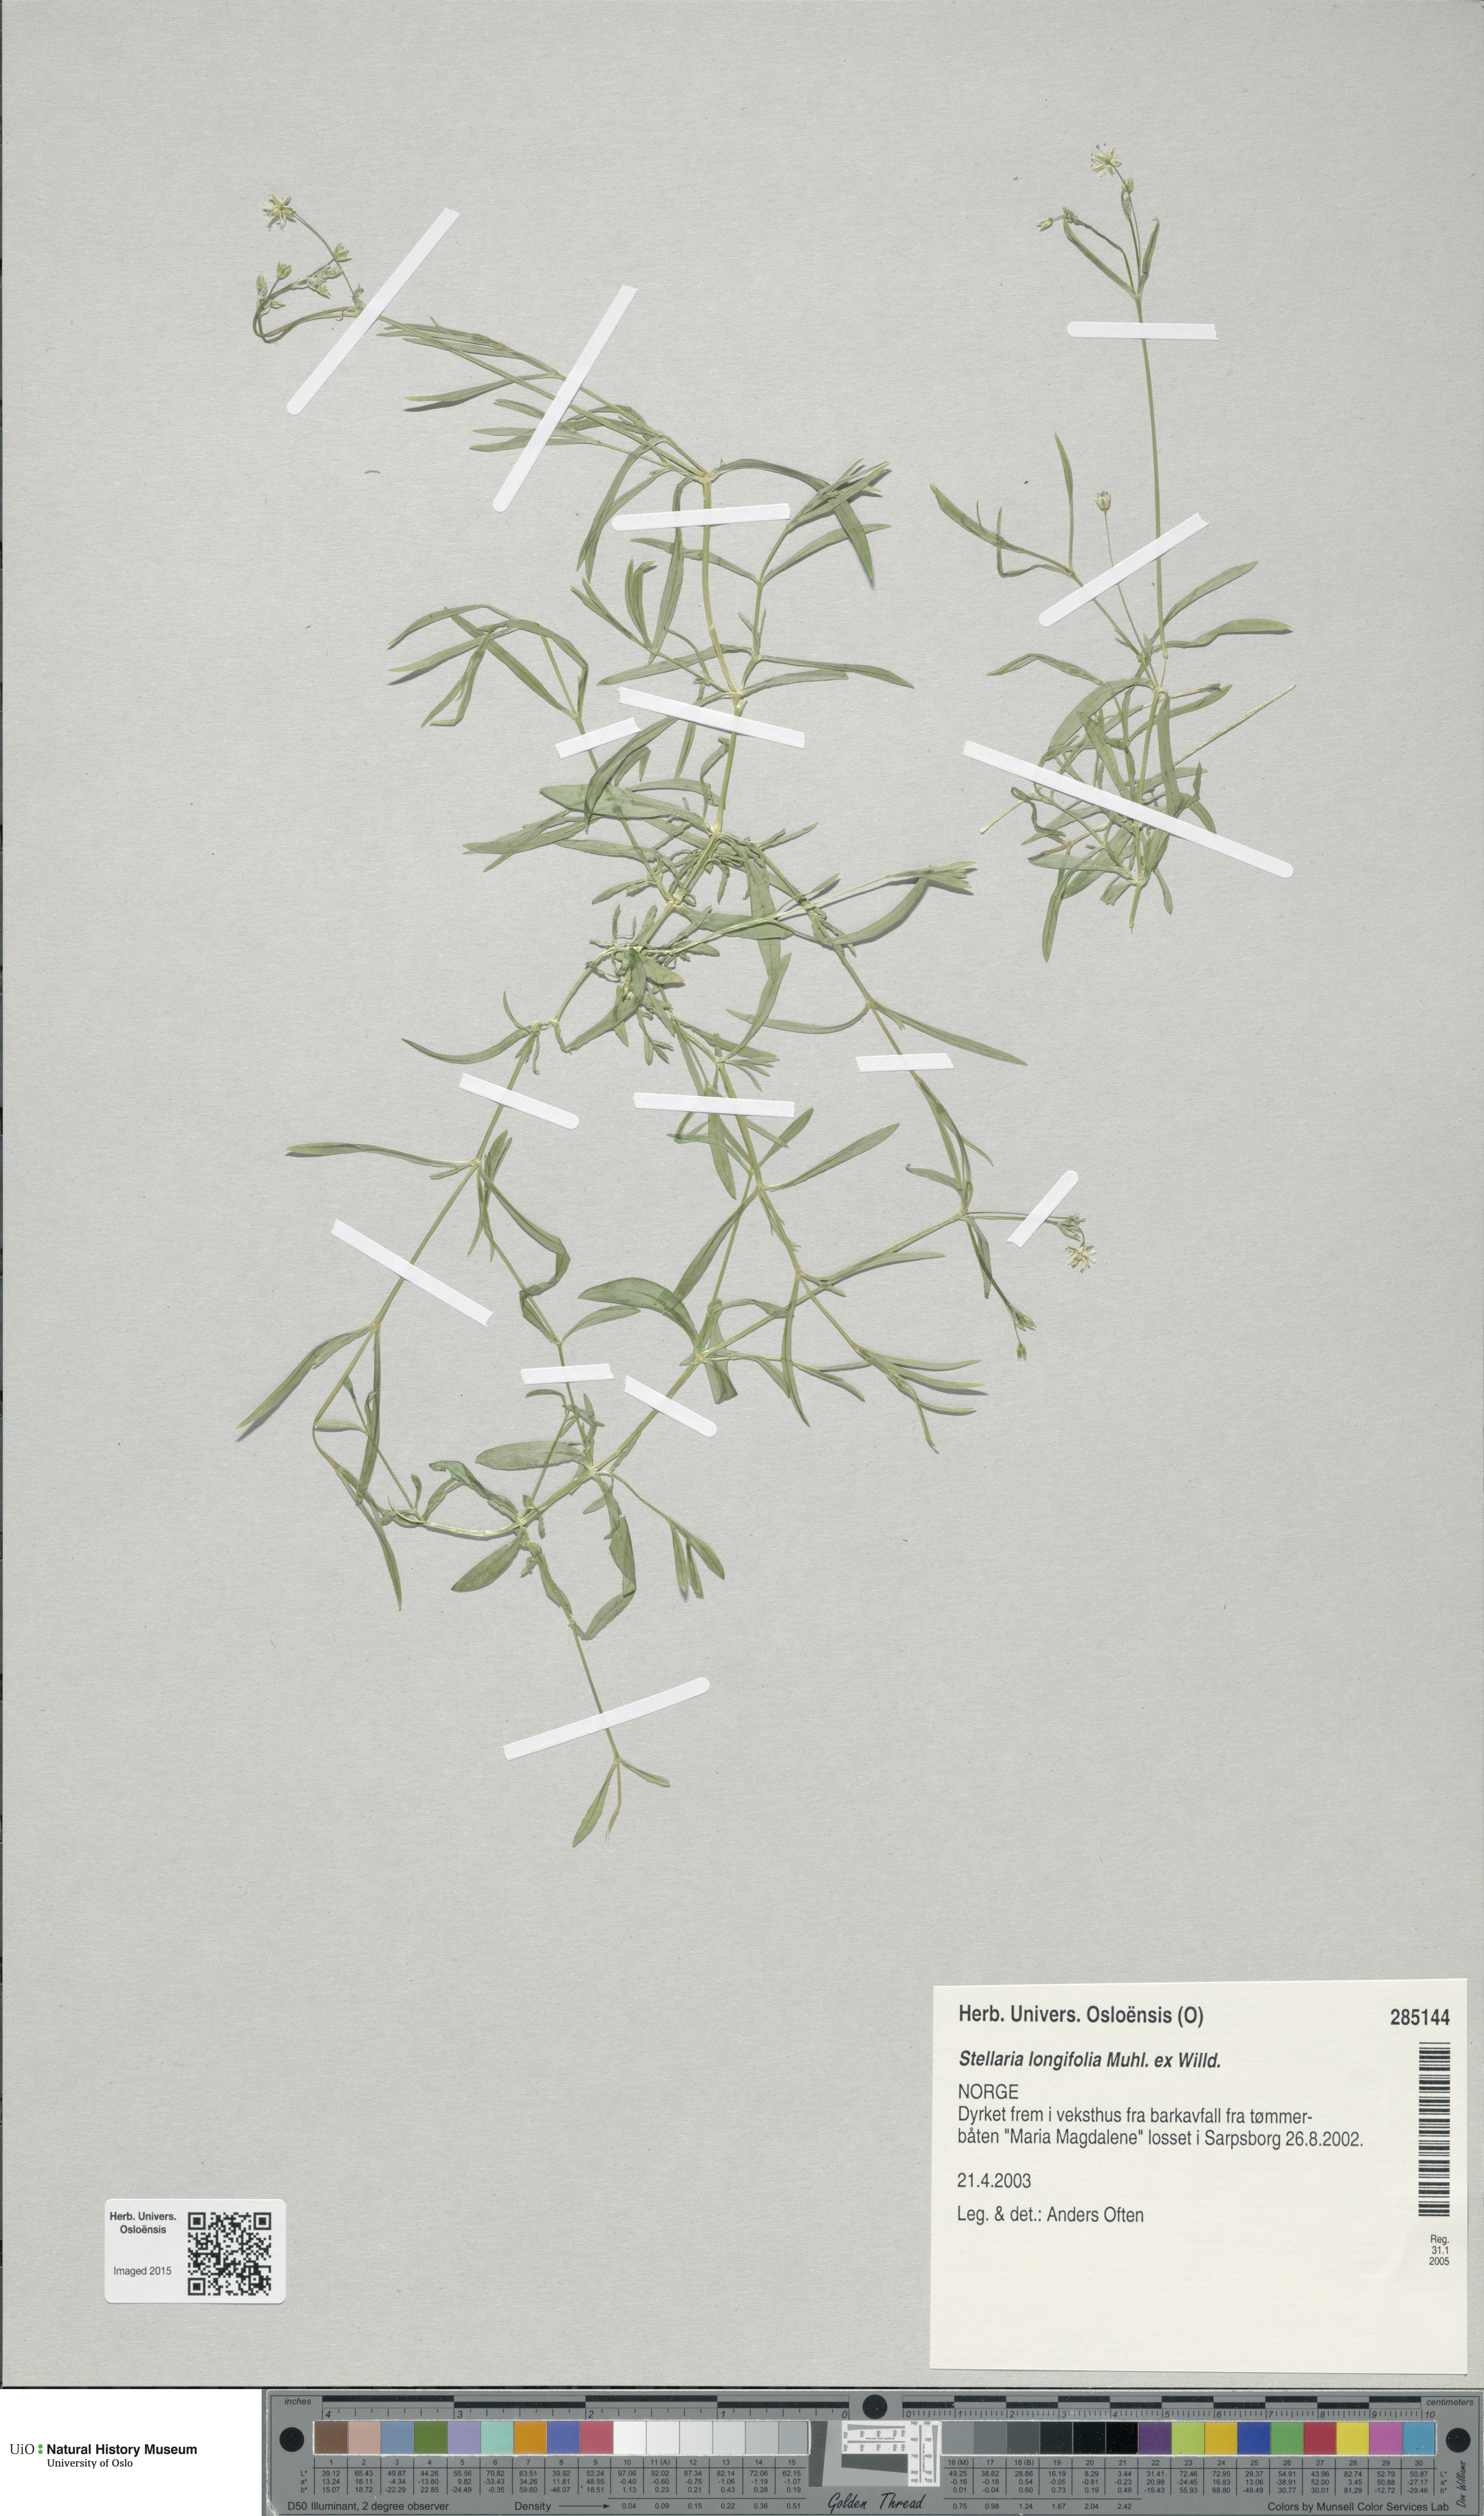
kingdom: Plantae
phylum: Tracheophyta
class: Magnoliopsida
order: Caryophyllales
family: Caryophyllaceae
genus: Stellaria
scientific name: Stellaria longifolia
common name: Long-leaved chickweed
